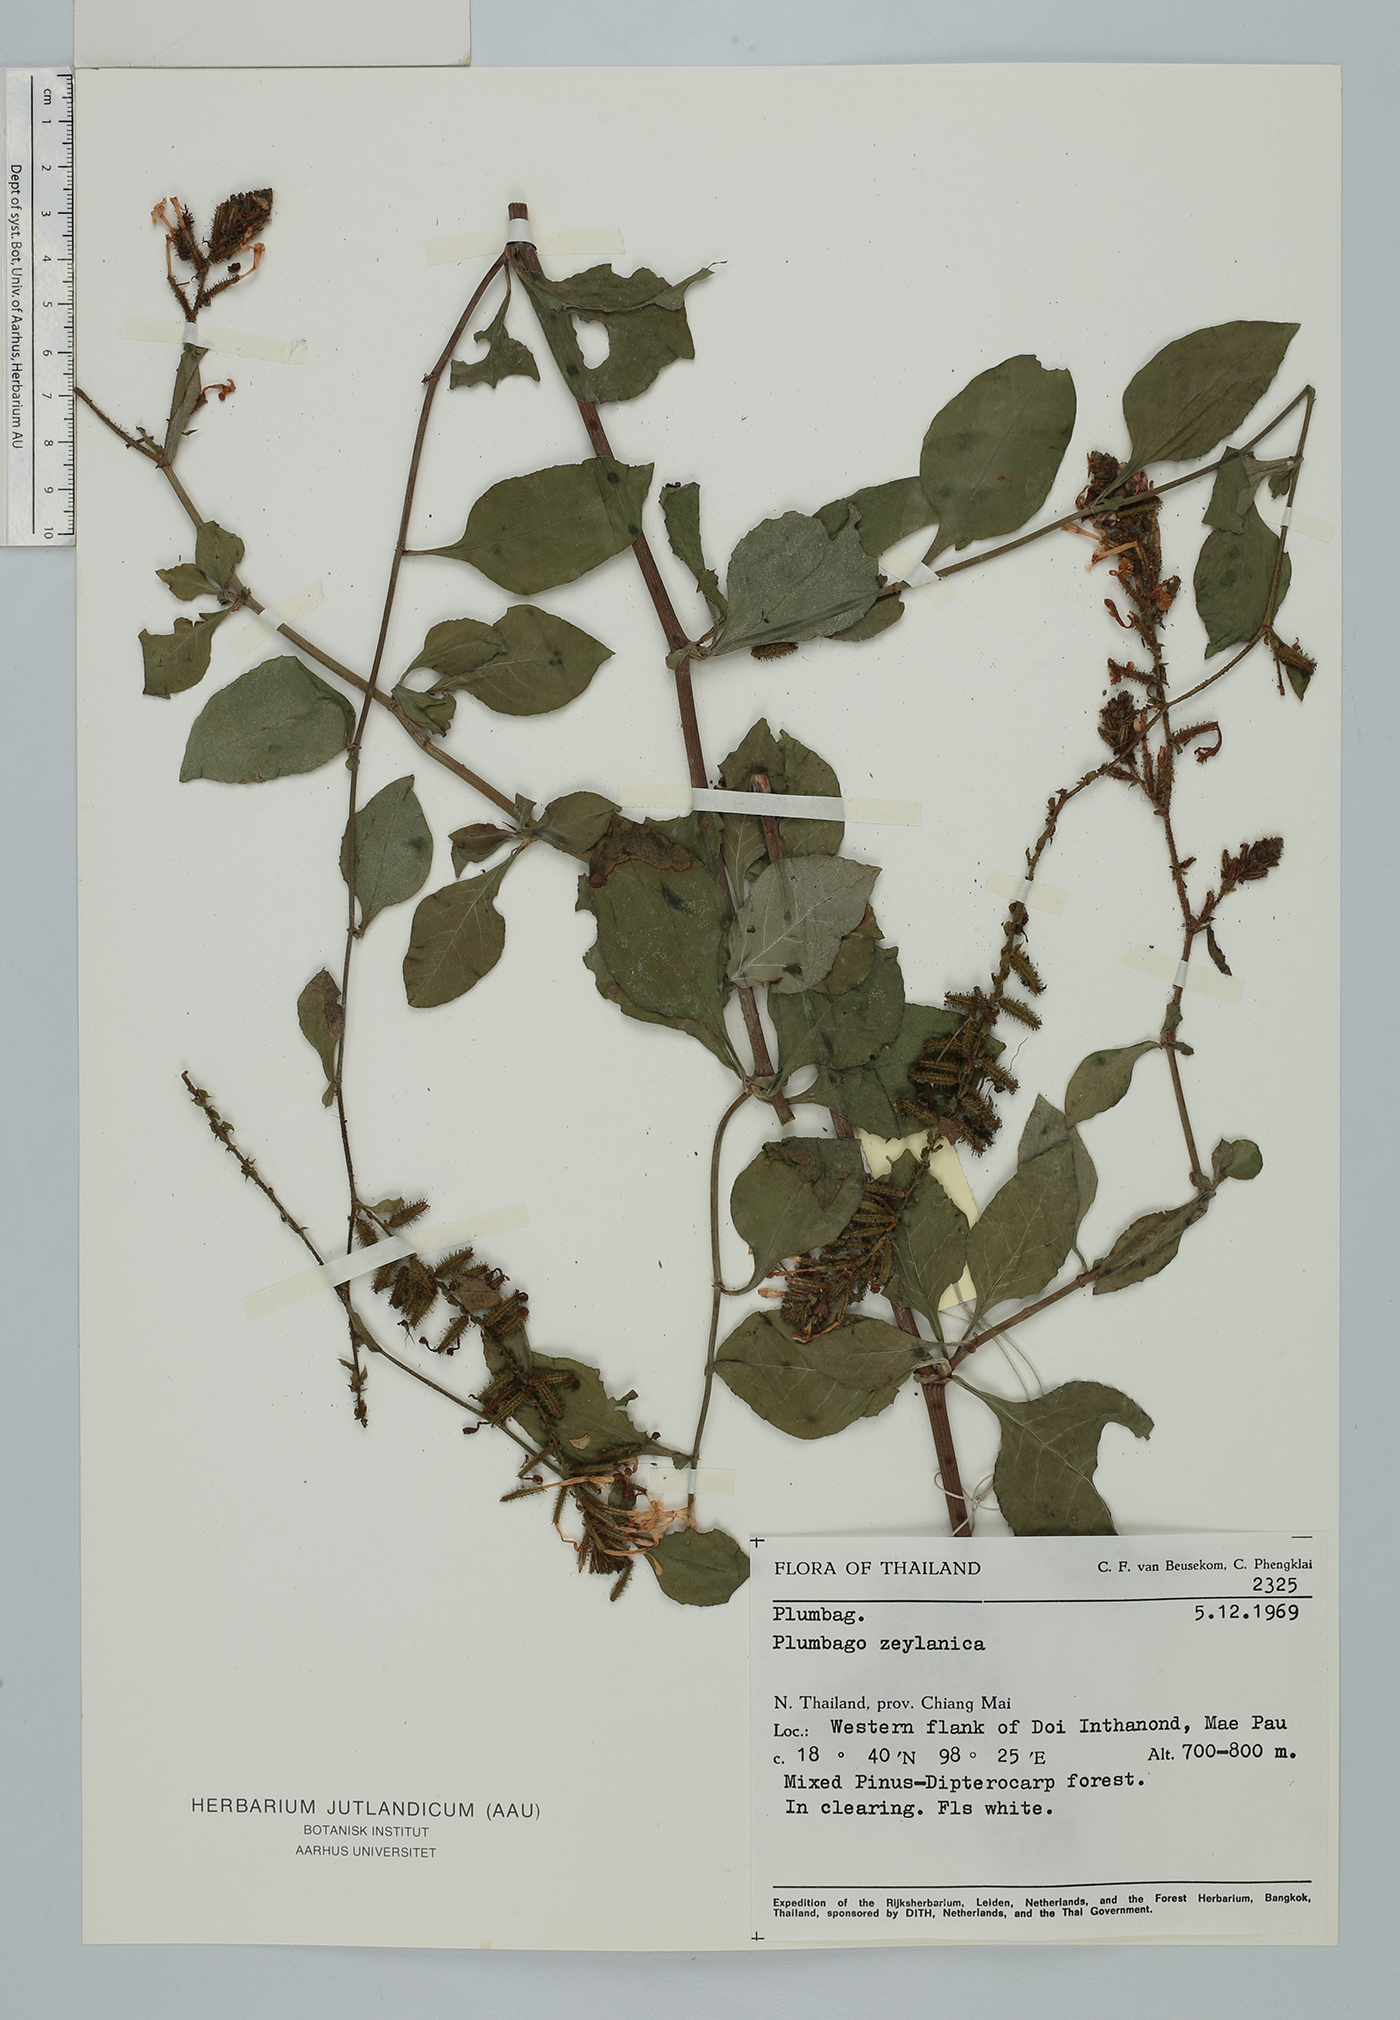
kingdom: Plantae
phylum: Tracheophyta
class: Magnoliopsida
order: Caryophyllales
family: Plumbaginaceae
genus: Plumbago
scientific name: Plumbago zeylanica
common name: Doctorbush
